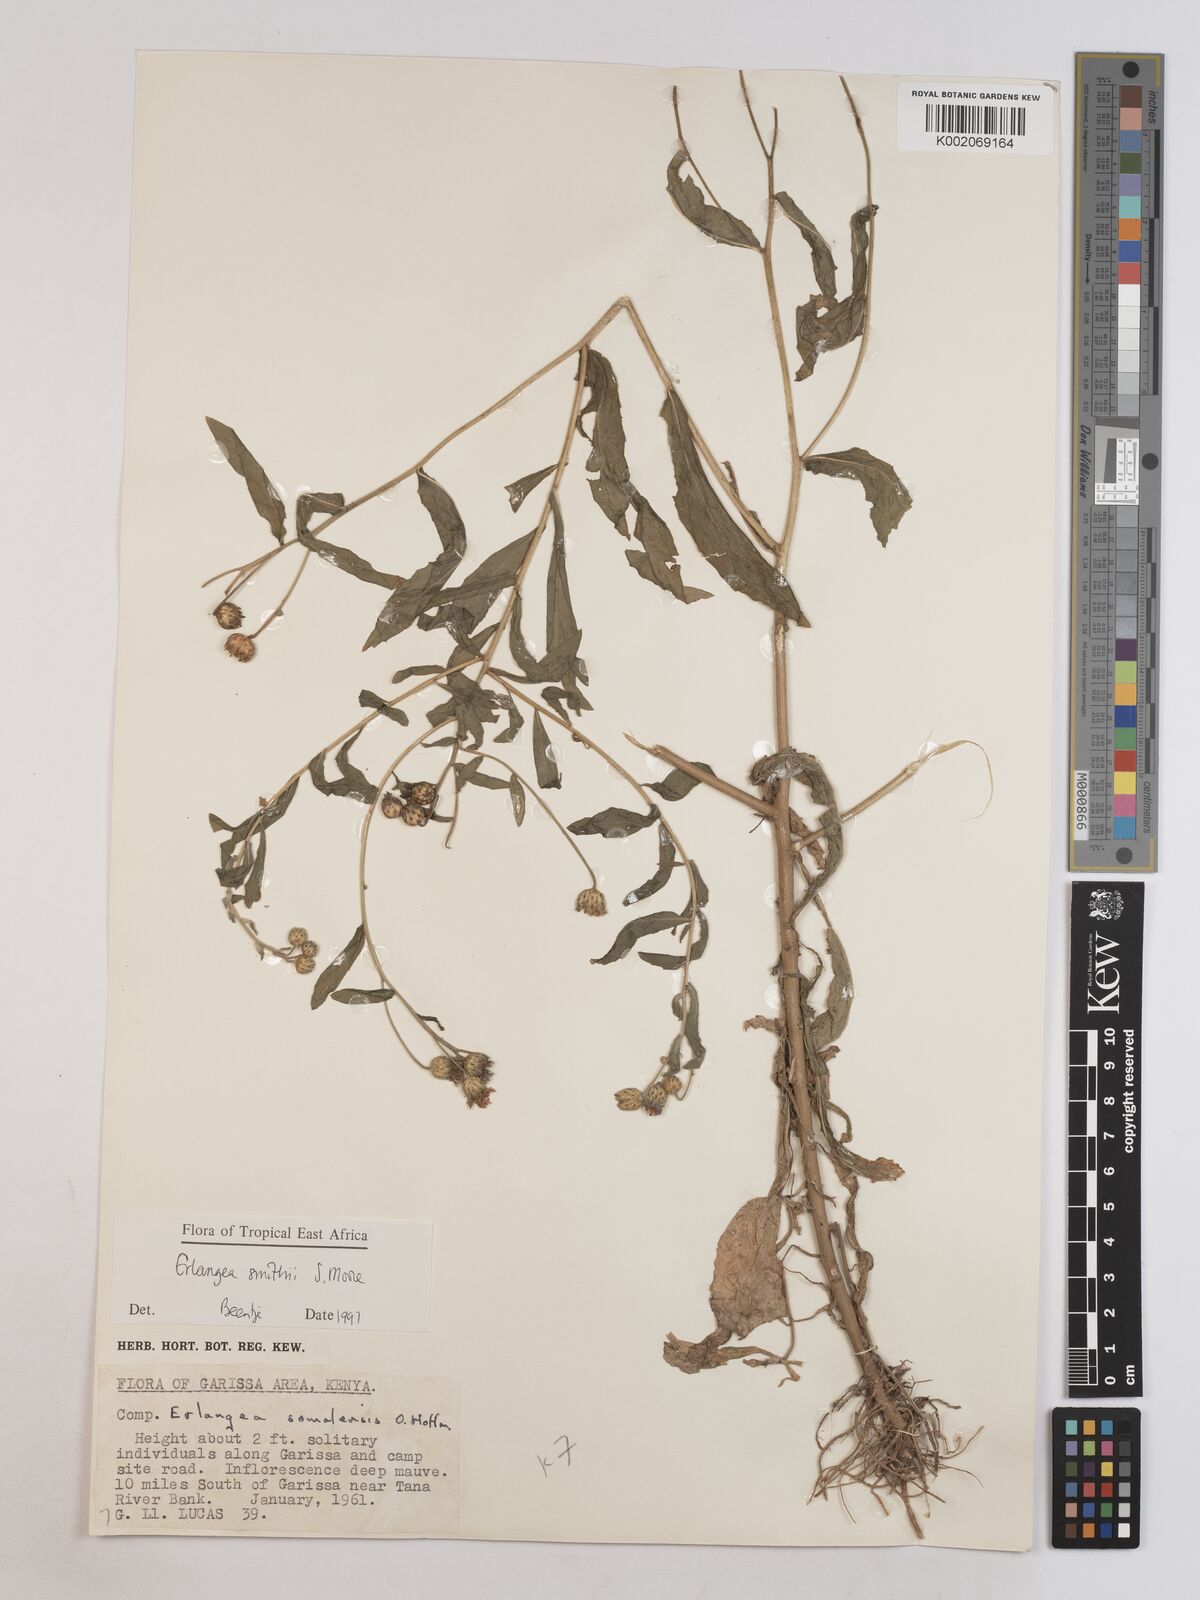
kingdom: Plantae
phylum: Tracheophyta
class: Magnoliopsida
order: Asterales
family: Asteraceae
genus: Erlangea
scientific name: Erlangea smithii
